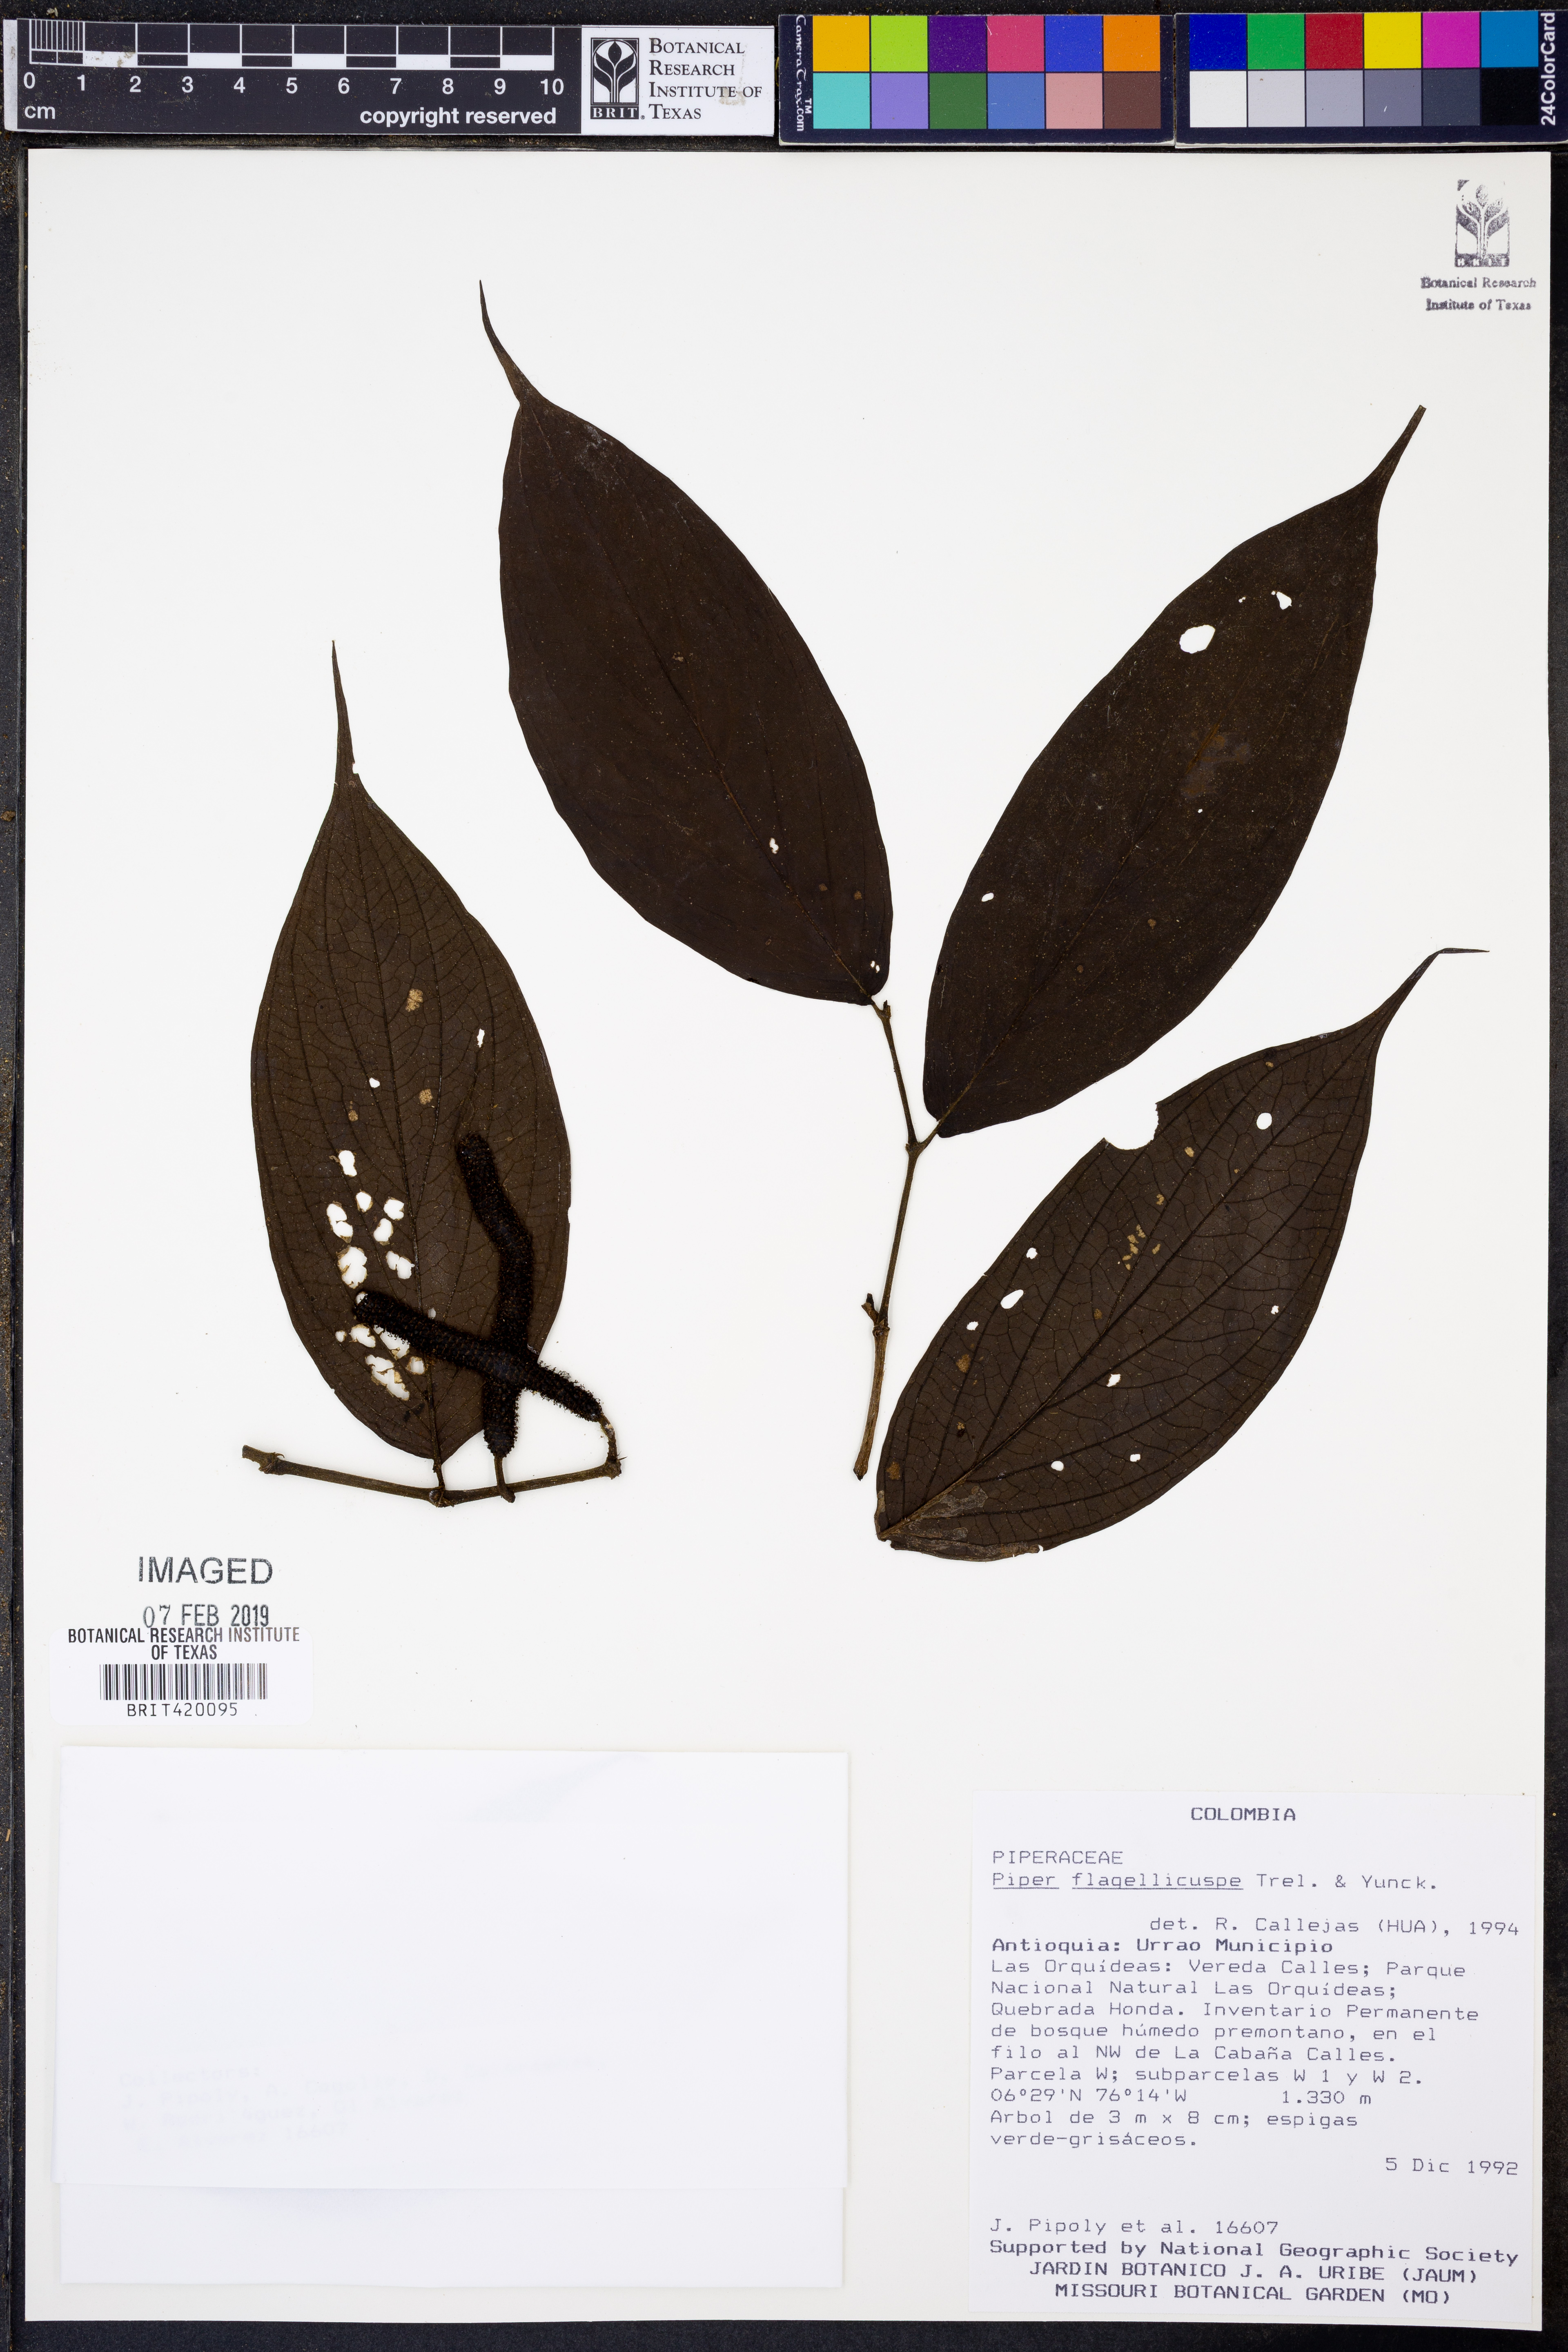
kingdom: Plantae
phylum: Tracheophyta
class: Magnoliopsida
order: Piperales
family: Piperaceae
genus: Piper
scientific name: Piper flagellicuspe
